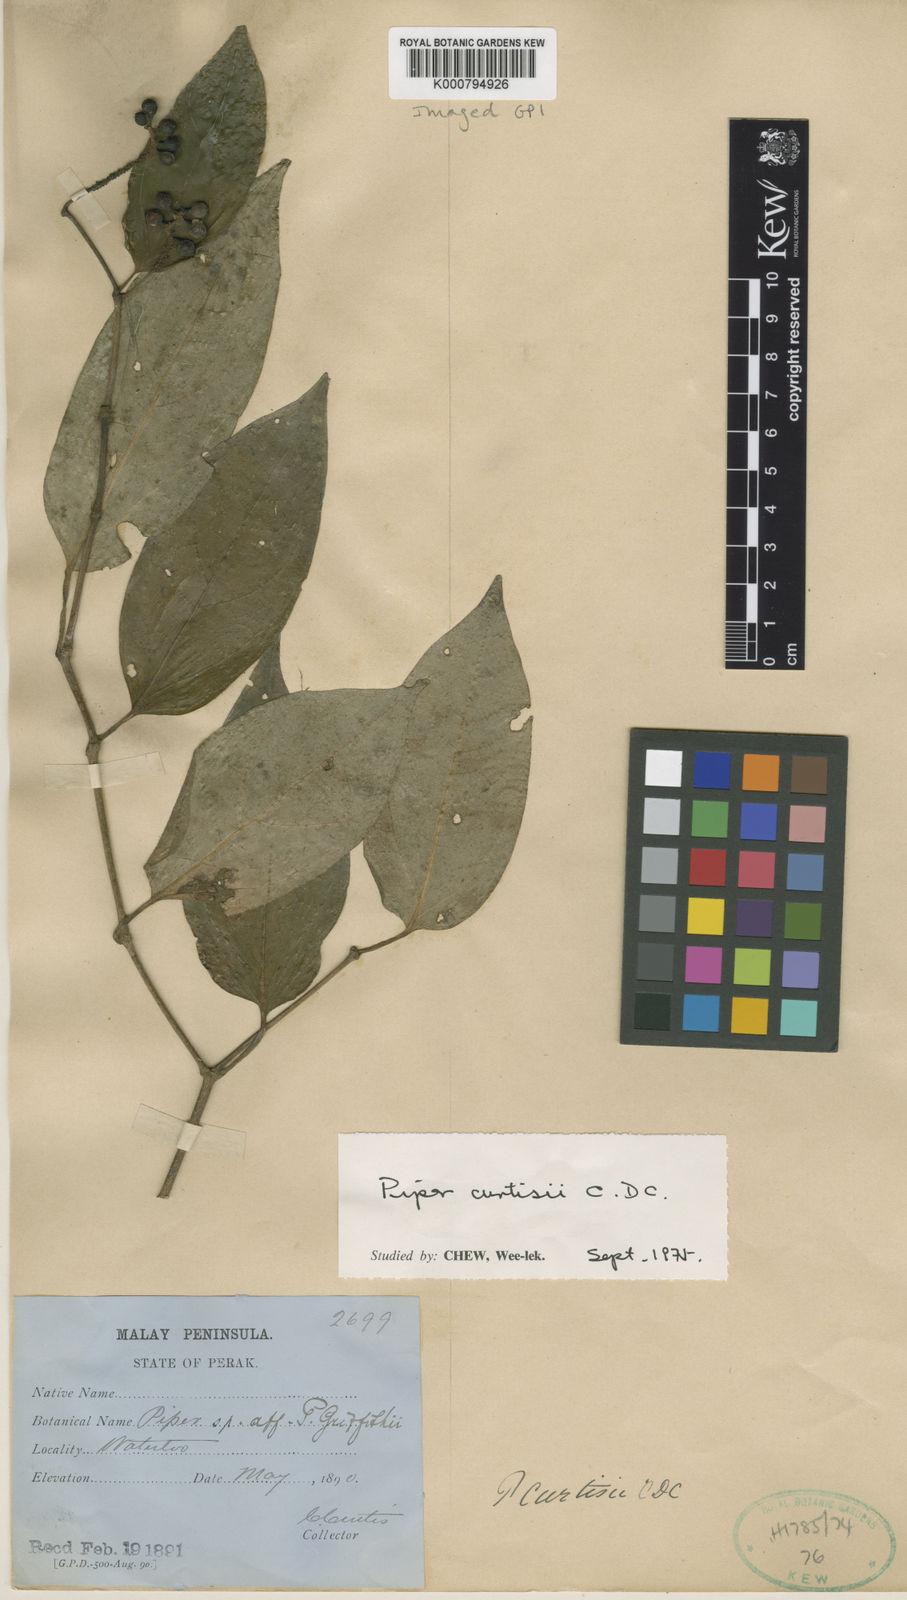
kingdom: Plantae
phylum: Tracheophyta
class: Magnoliopsida
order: Piperales
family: Piperaceae
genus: Piper
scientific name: Piper curtisii
